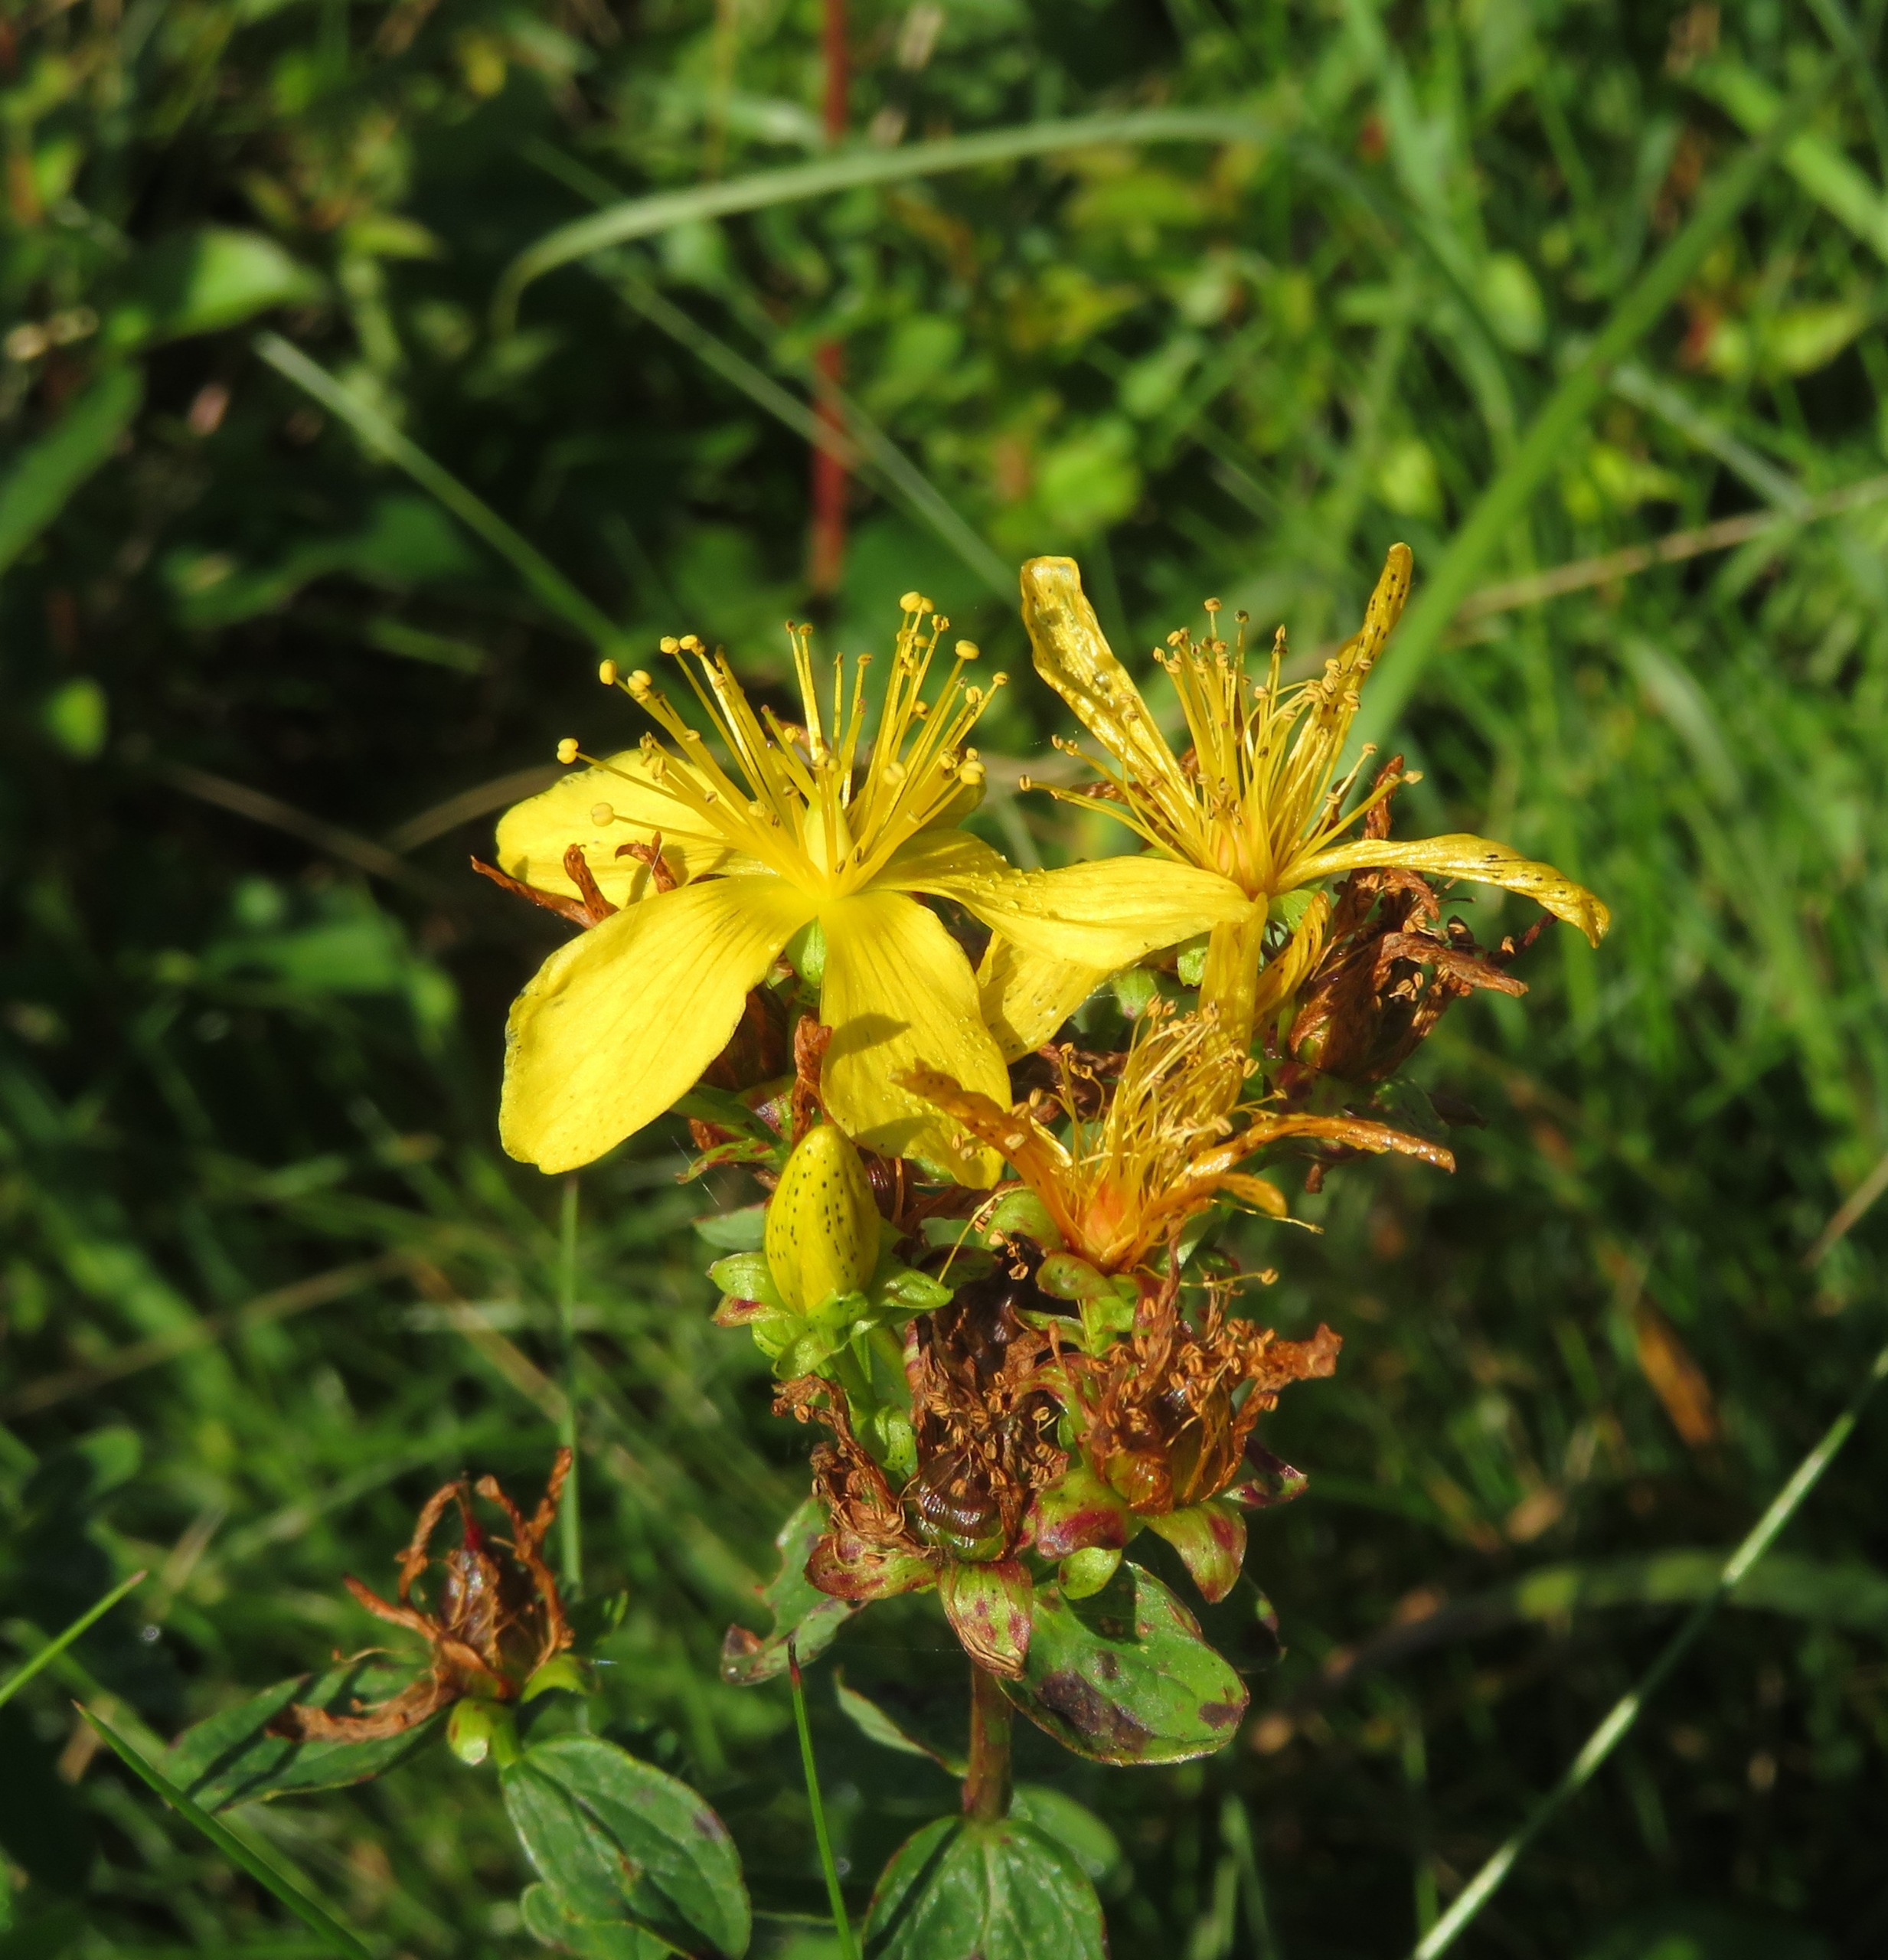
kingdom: Plantae
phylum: Tracheophyta
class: Magnoliopsida
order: Malpighiales
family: Hypericaceae
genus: Hypericum
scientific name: Hypericum maculatum
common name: Kantet perikon
